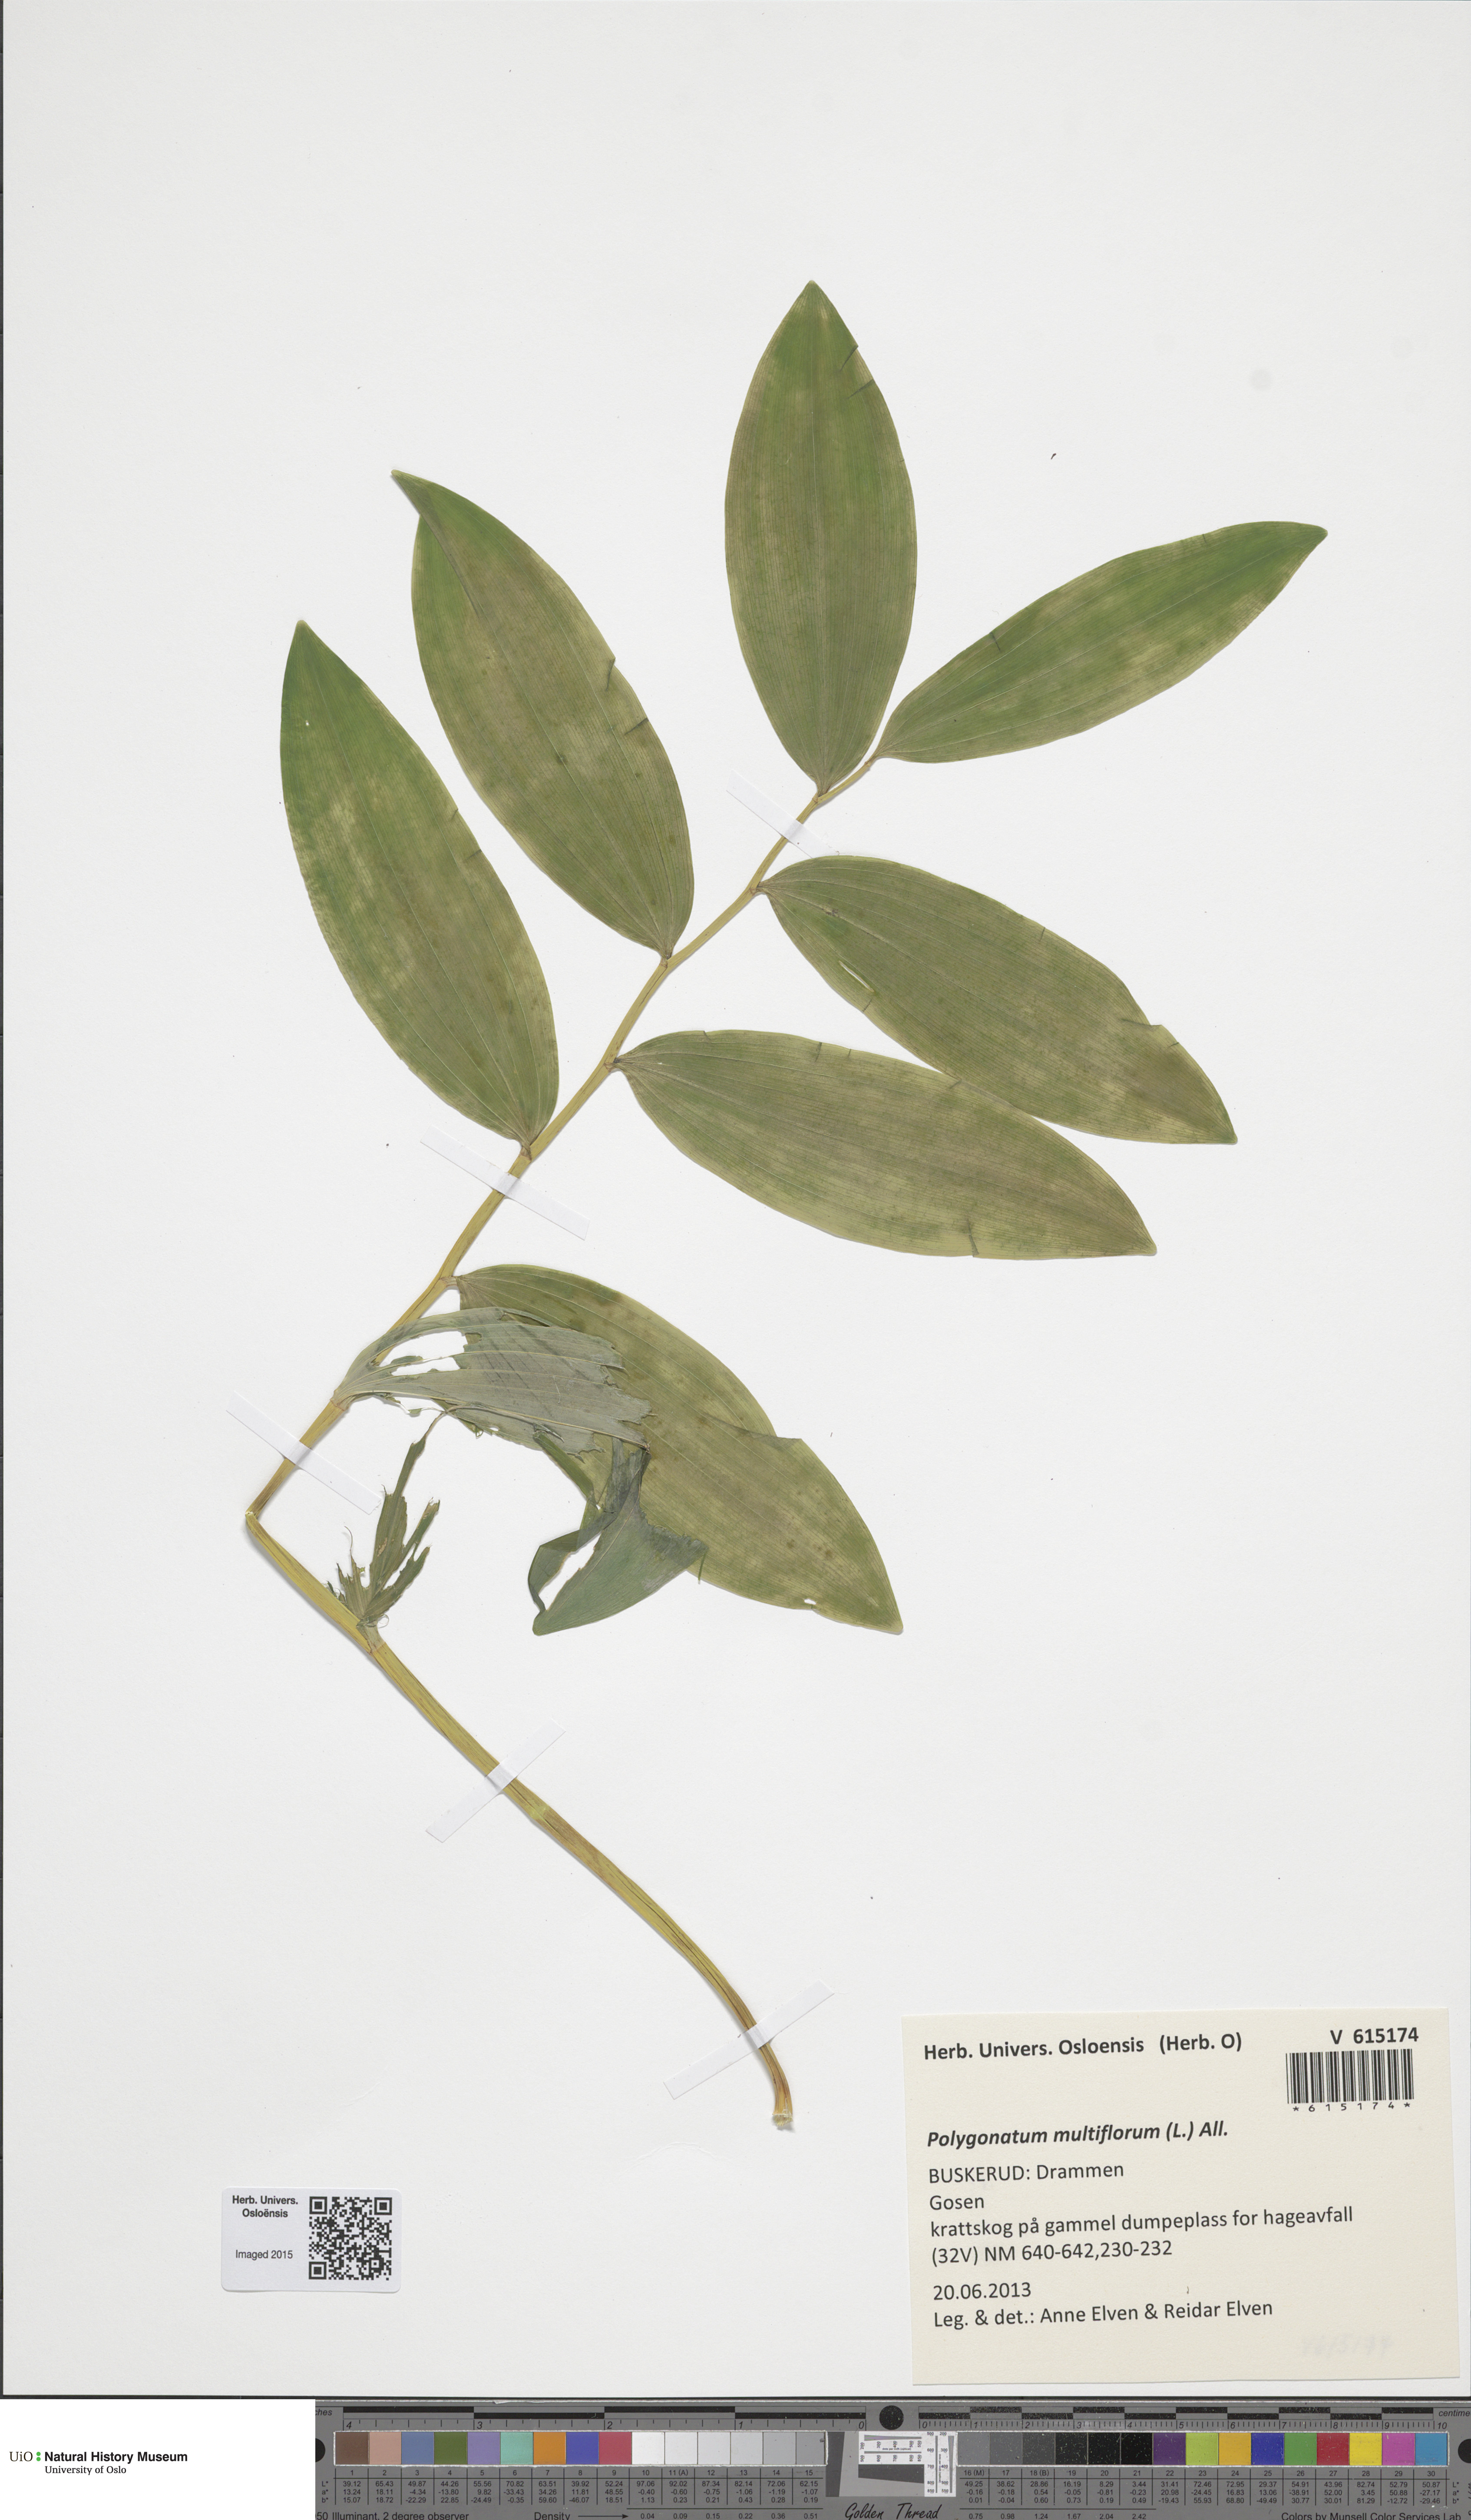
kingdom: Plantae
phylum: Tracheophyta
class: Liliopsida
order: Asparagales
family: Asparagaceae
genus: Polygonatum
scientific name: Polygonatum multiflorum
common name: Solomon's-seal
